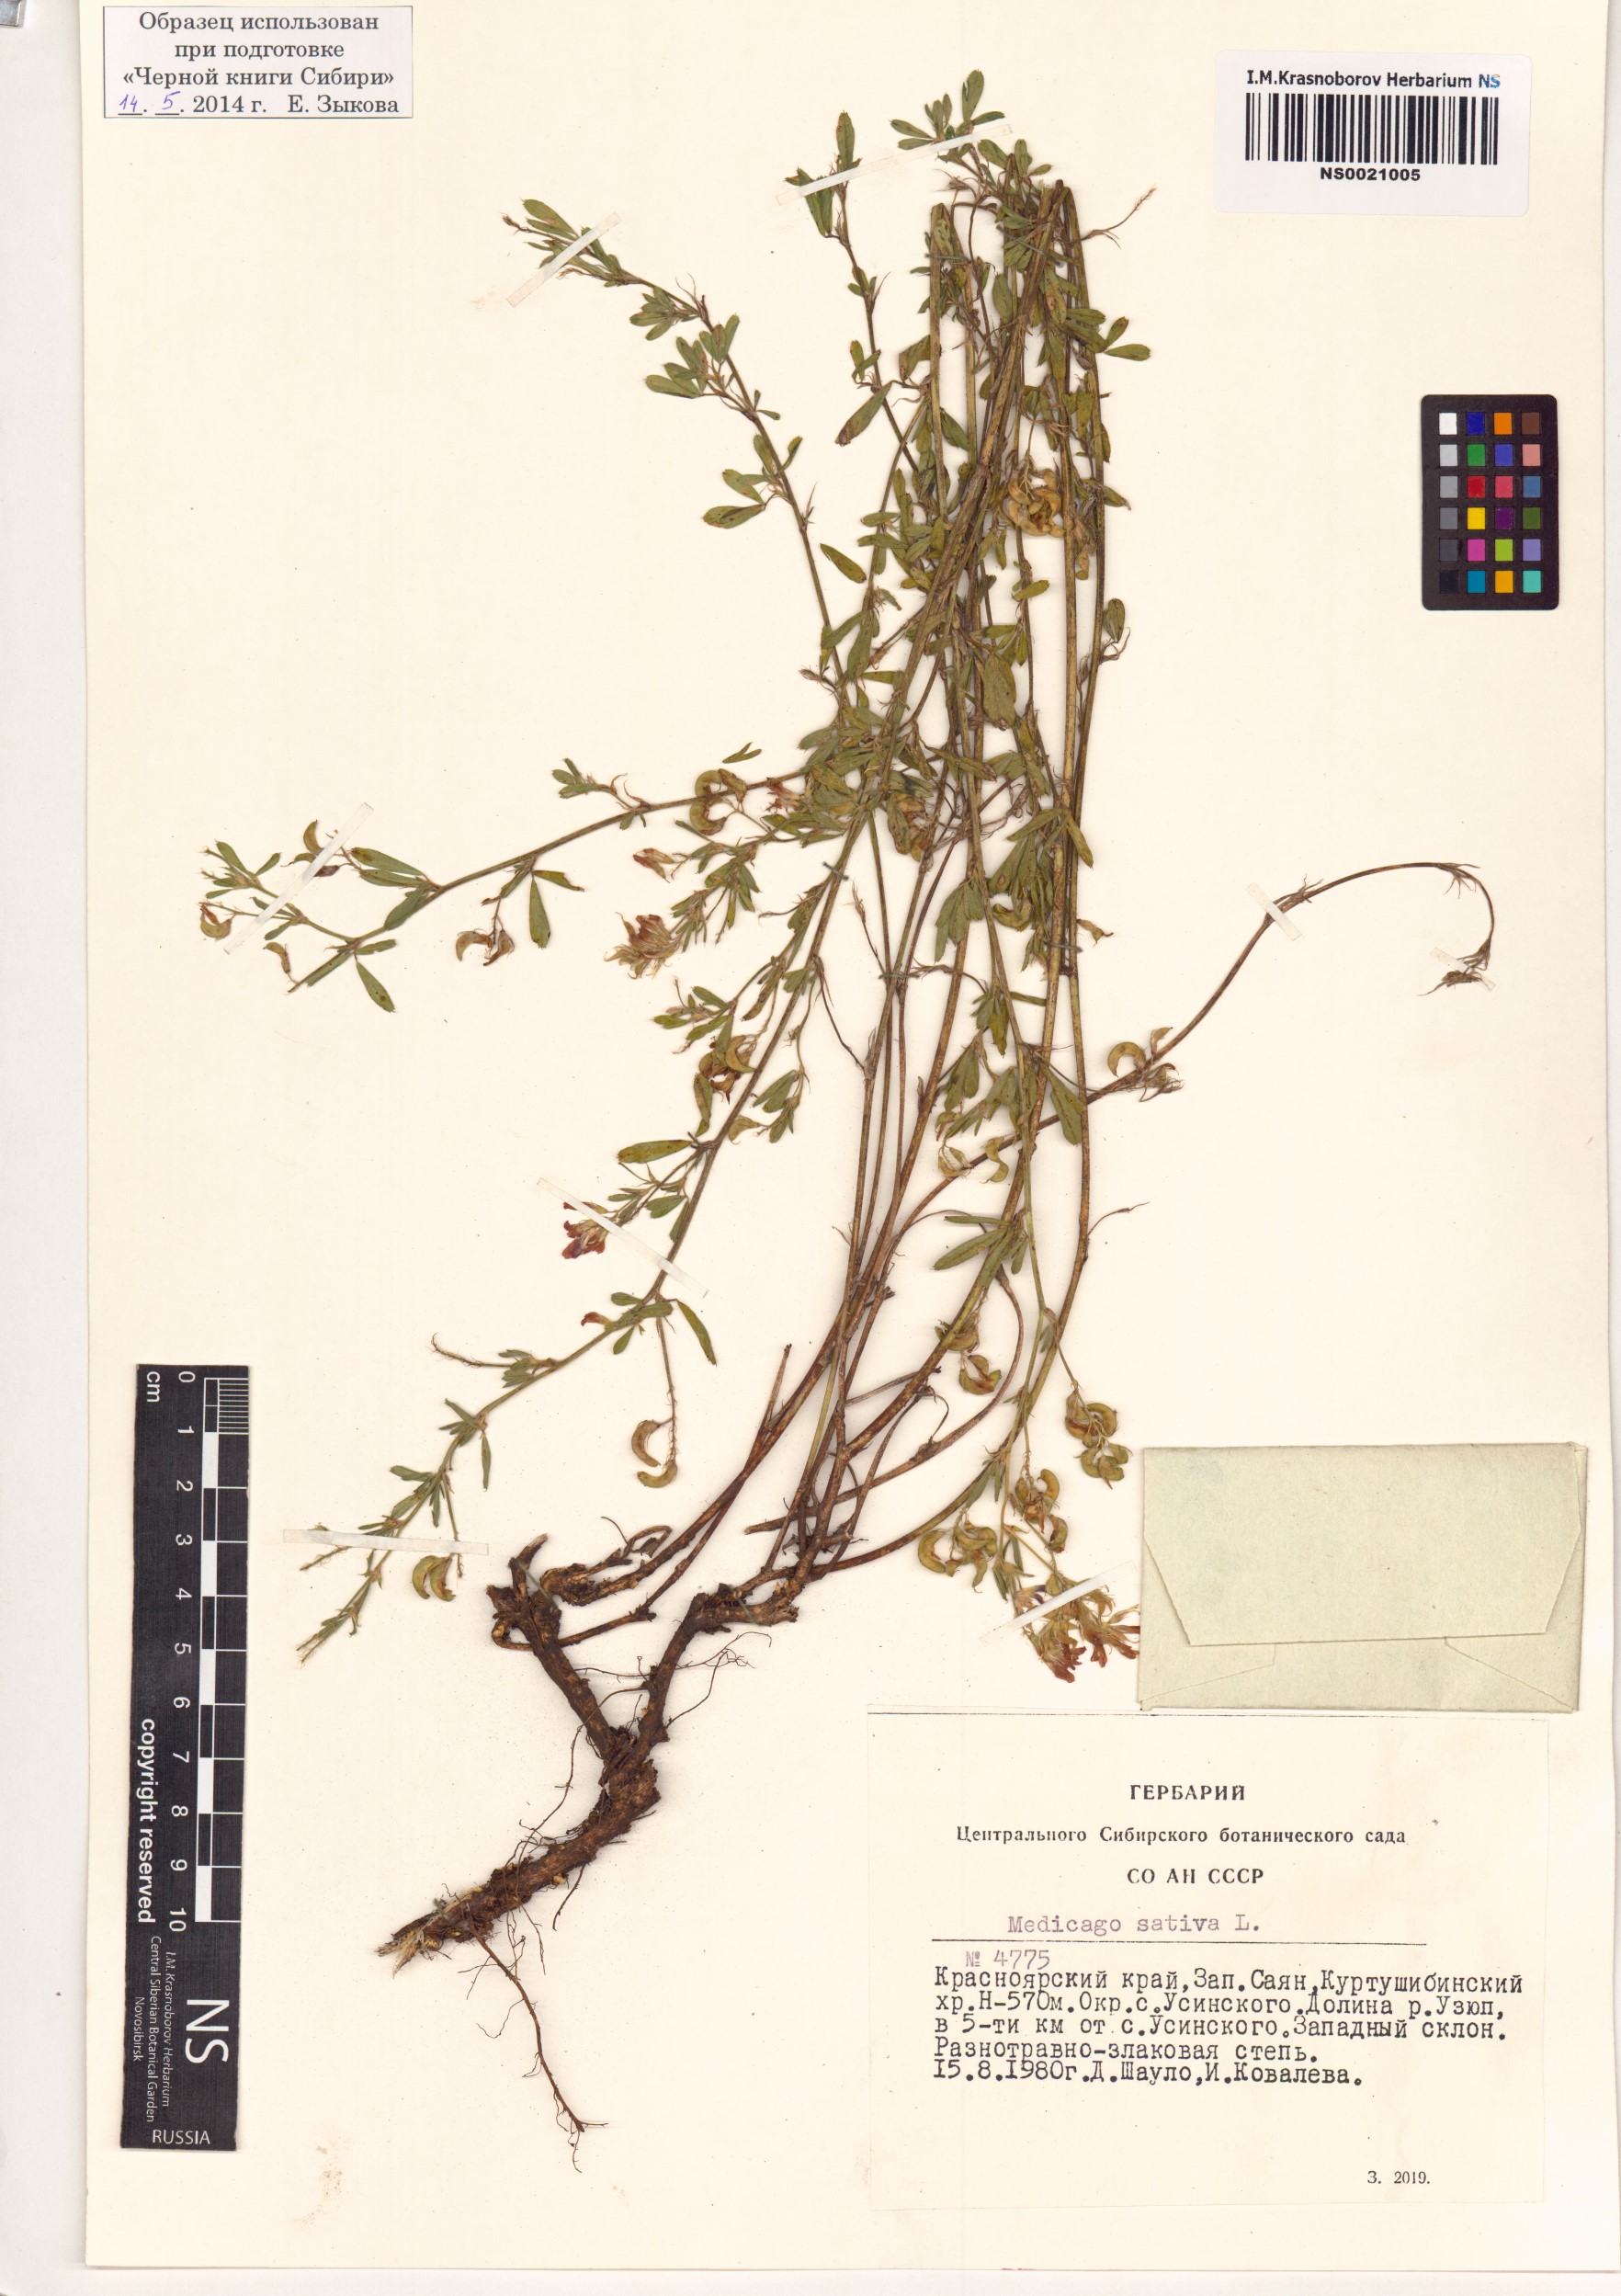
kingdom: Plantae
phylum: Tracheophyta
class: Magnoliopsida
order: Fabales
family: Fabaceae
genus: Medicago
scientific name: Medicago sativa
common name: Alfalfa
